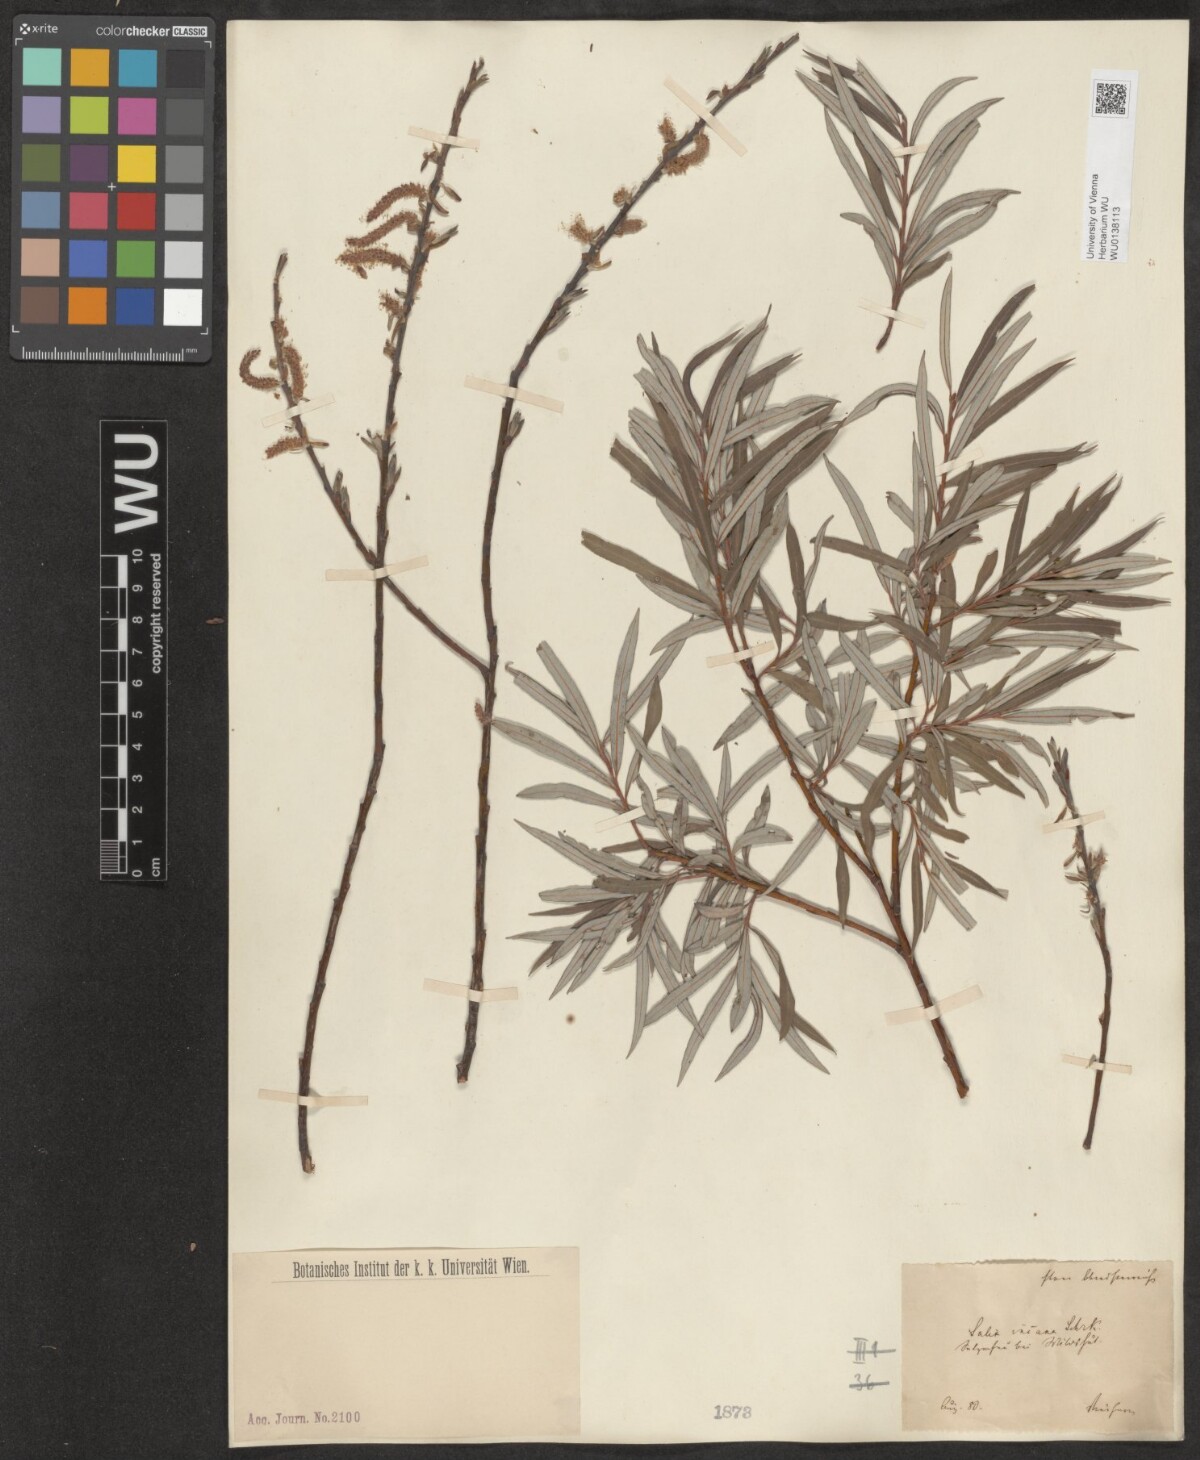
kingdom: Plantae
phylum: Tracheophyta
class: Magnoliopsida
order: Malpighiales
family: Salicaceae
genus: Salix
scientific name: Salix eleagnos
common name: Elaeagnus willow
